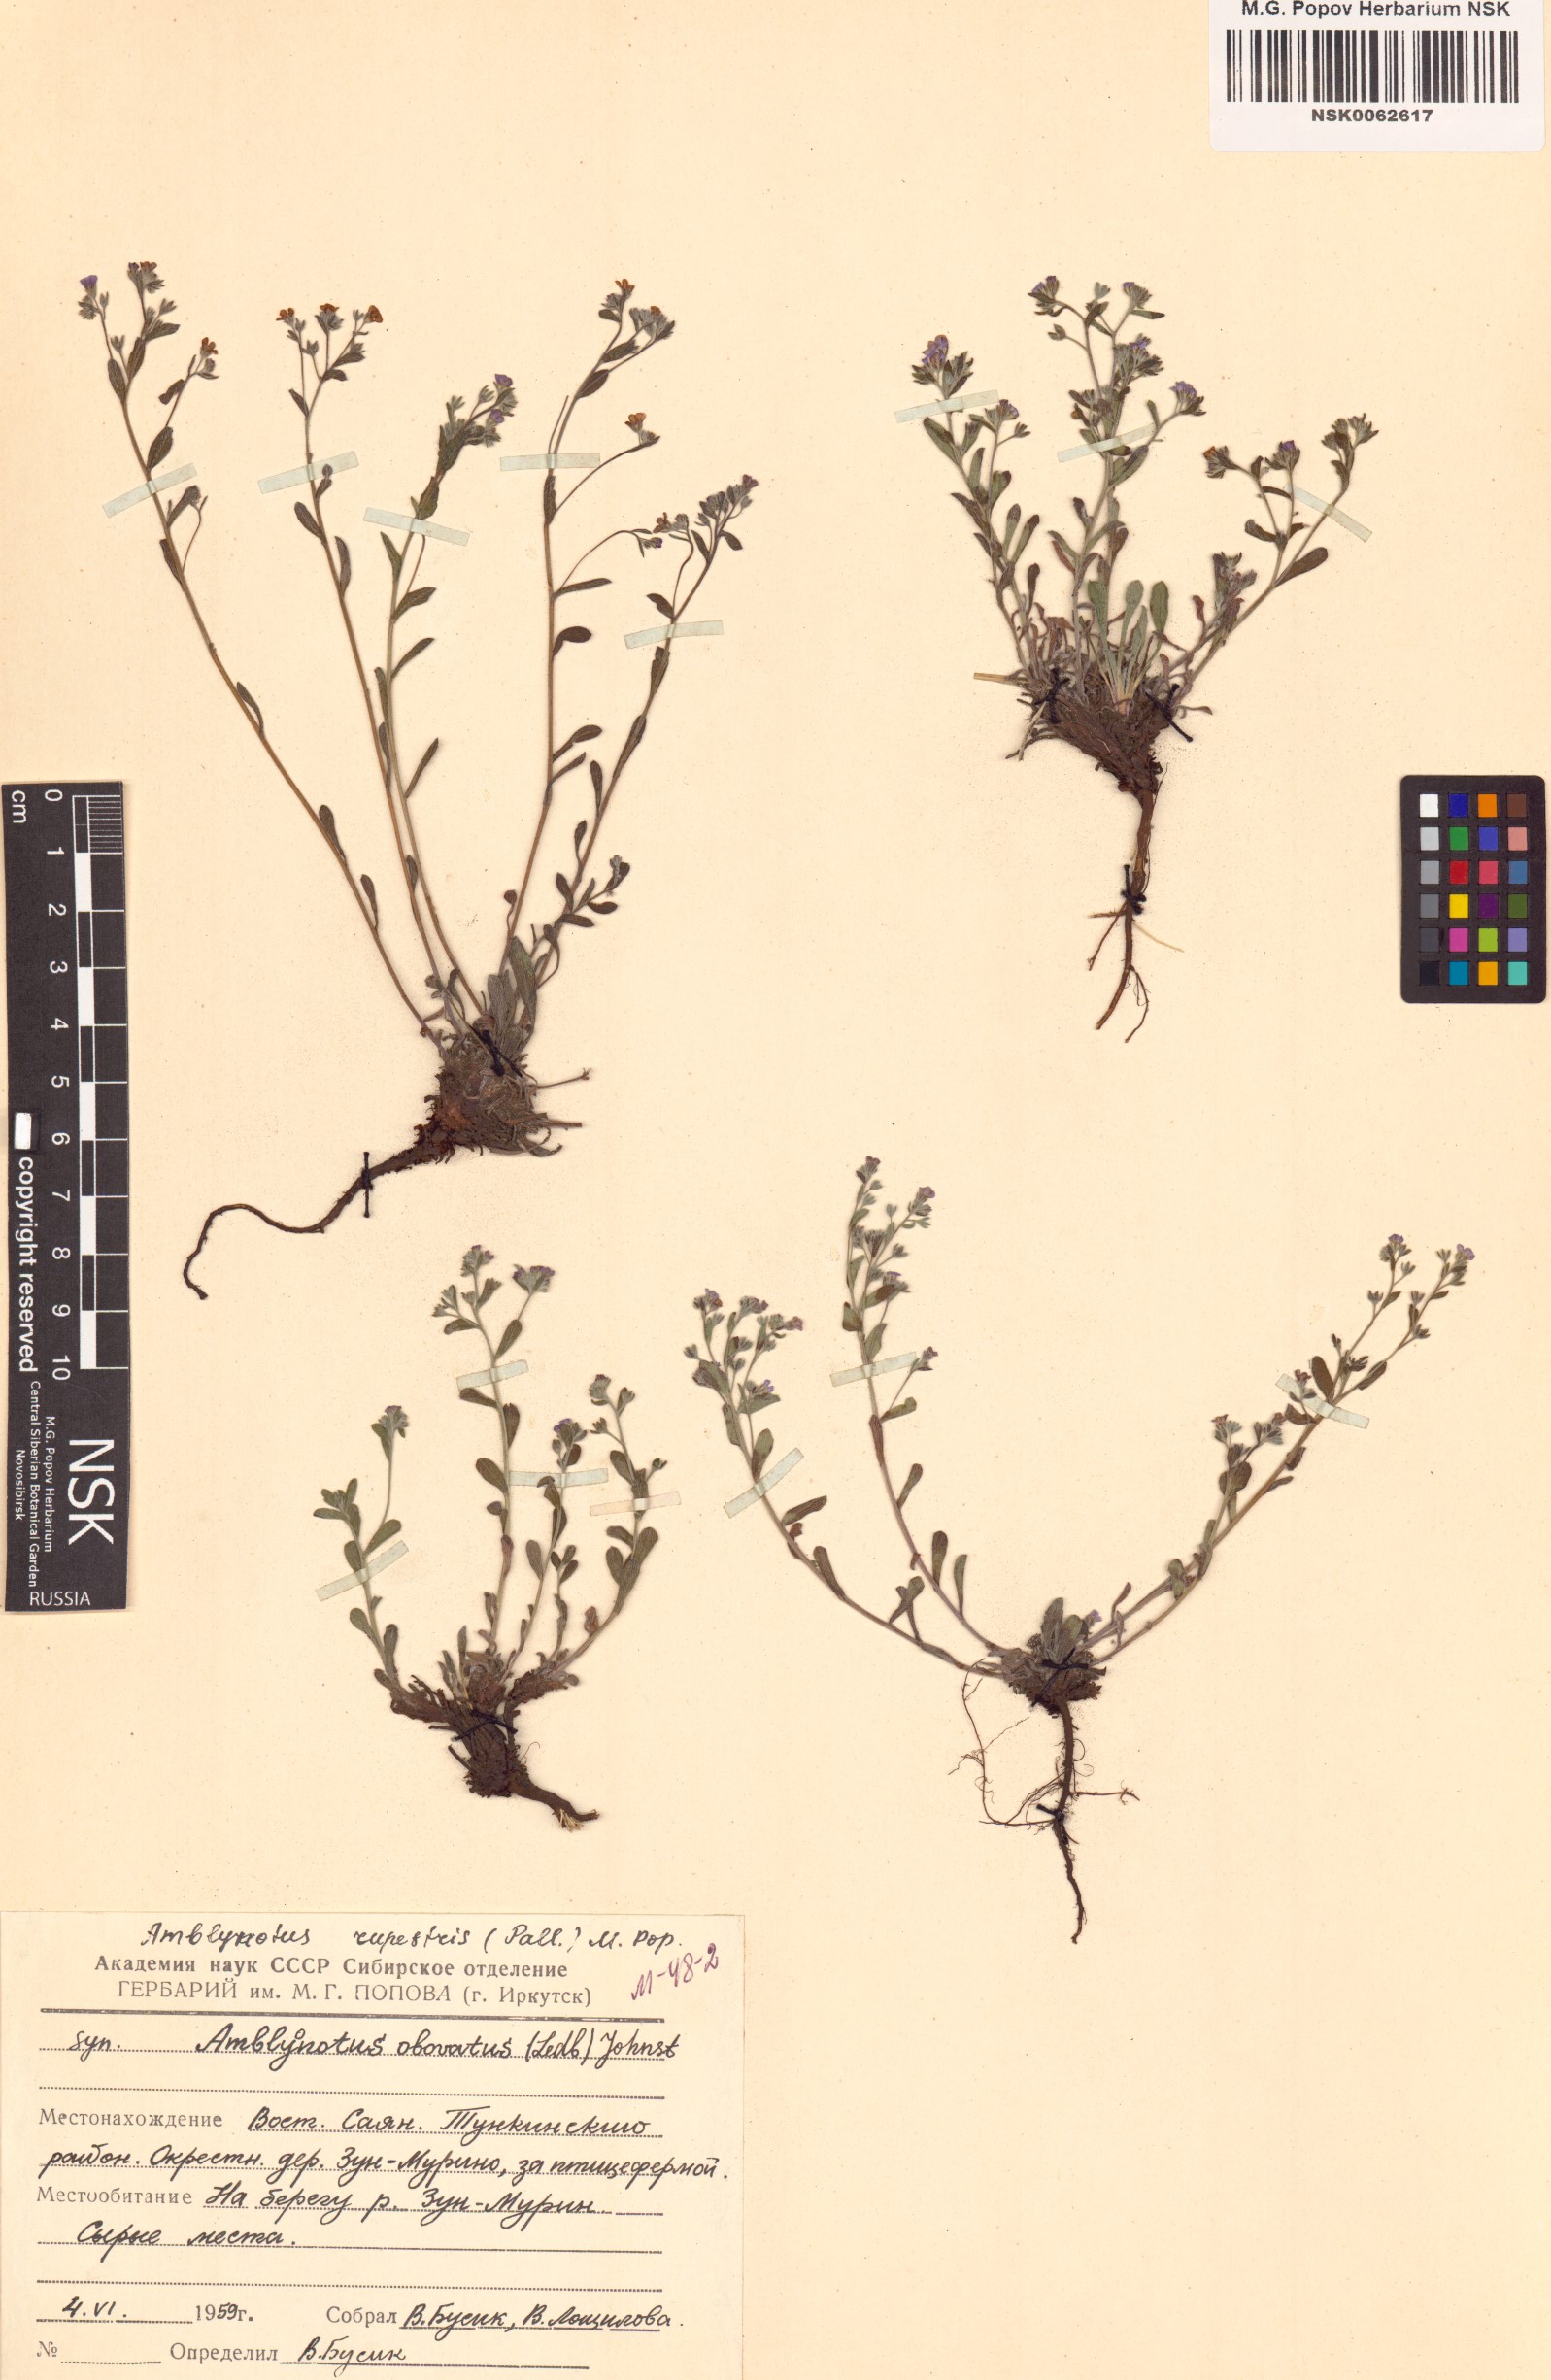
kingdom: Plantae
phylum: Tracheophyta
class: Magnoliopsida
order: Boraginales
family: Boraginaceae
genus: Eritrichium
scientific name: Eritrichium rupestre
